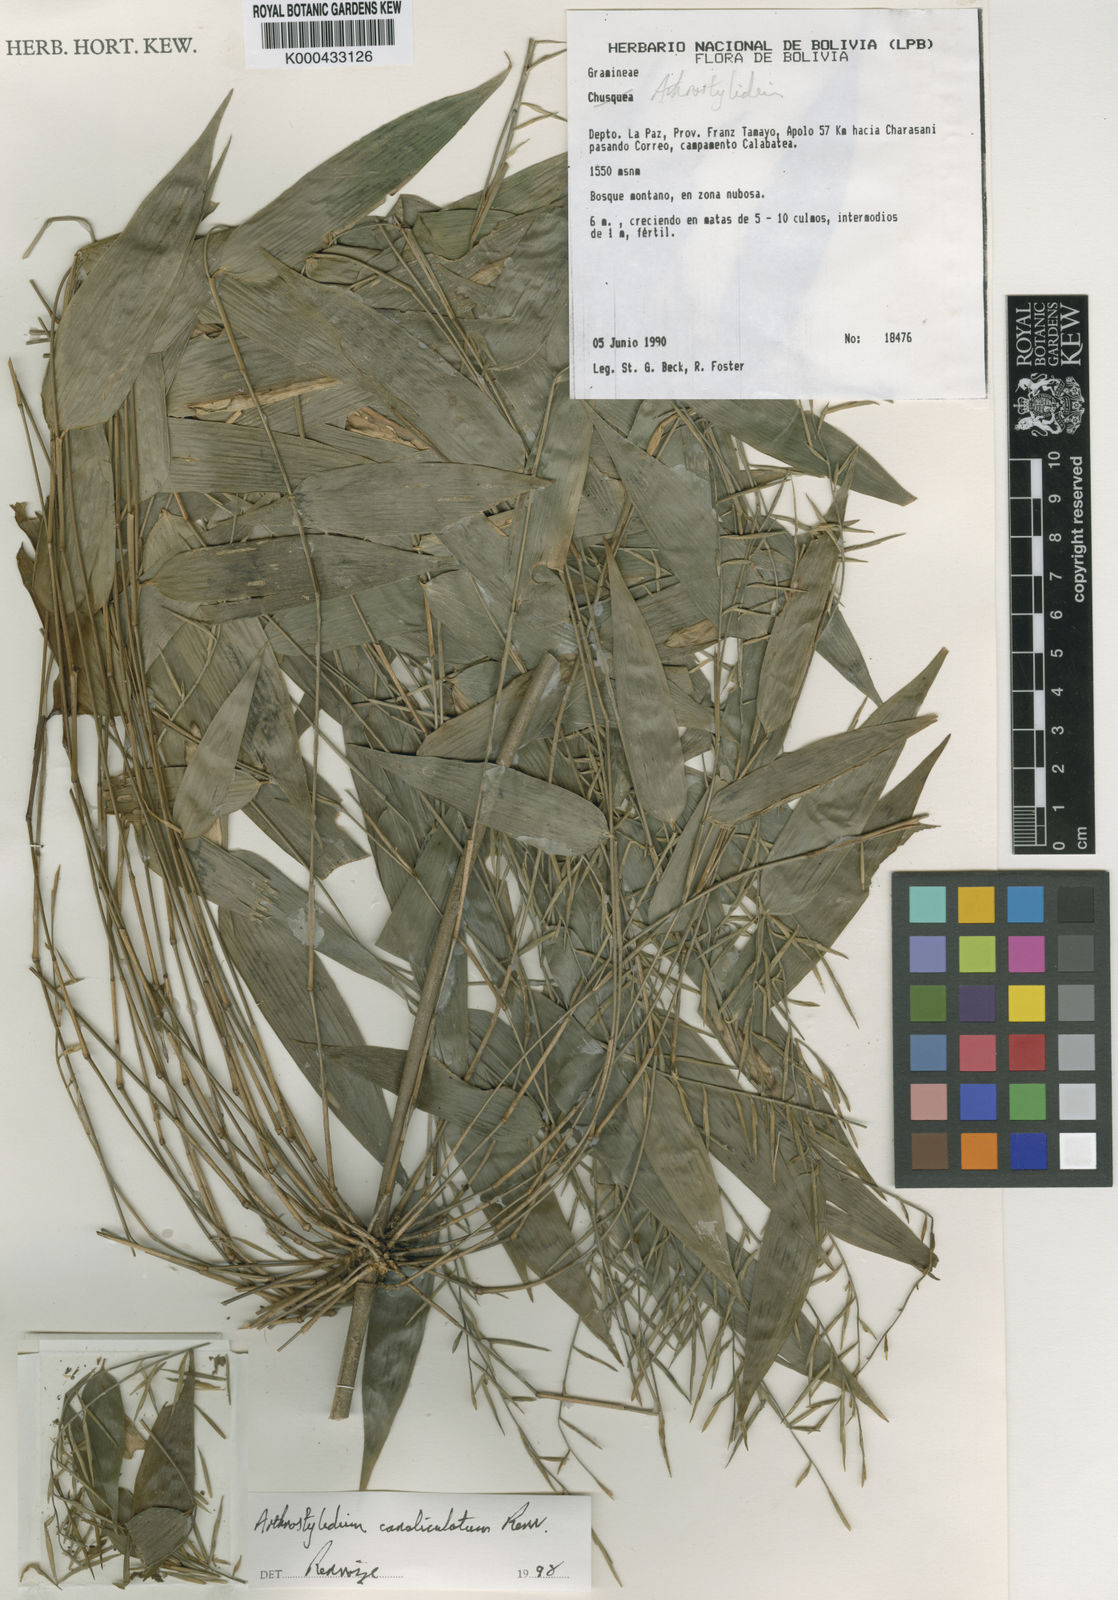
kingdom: Plantae
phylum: Tracheophyta
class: Liliopsida
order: Poales
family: Poaceae
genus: Arthrostylidium
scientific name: Arthrostylidium canaliculatum
